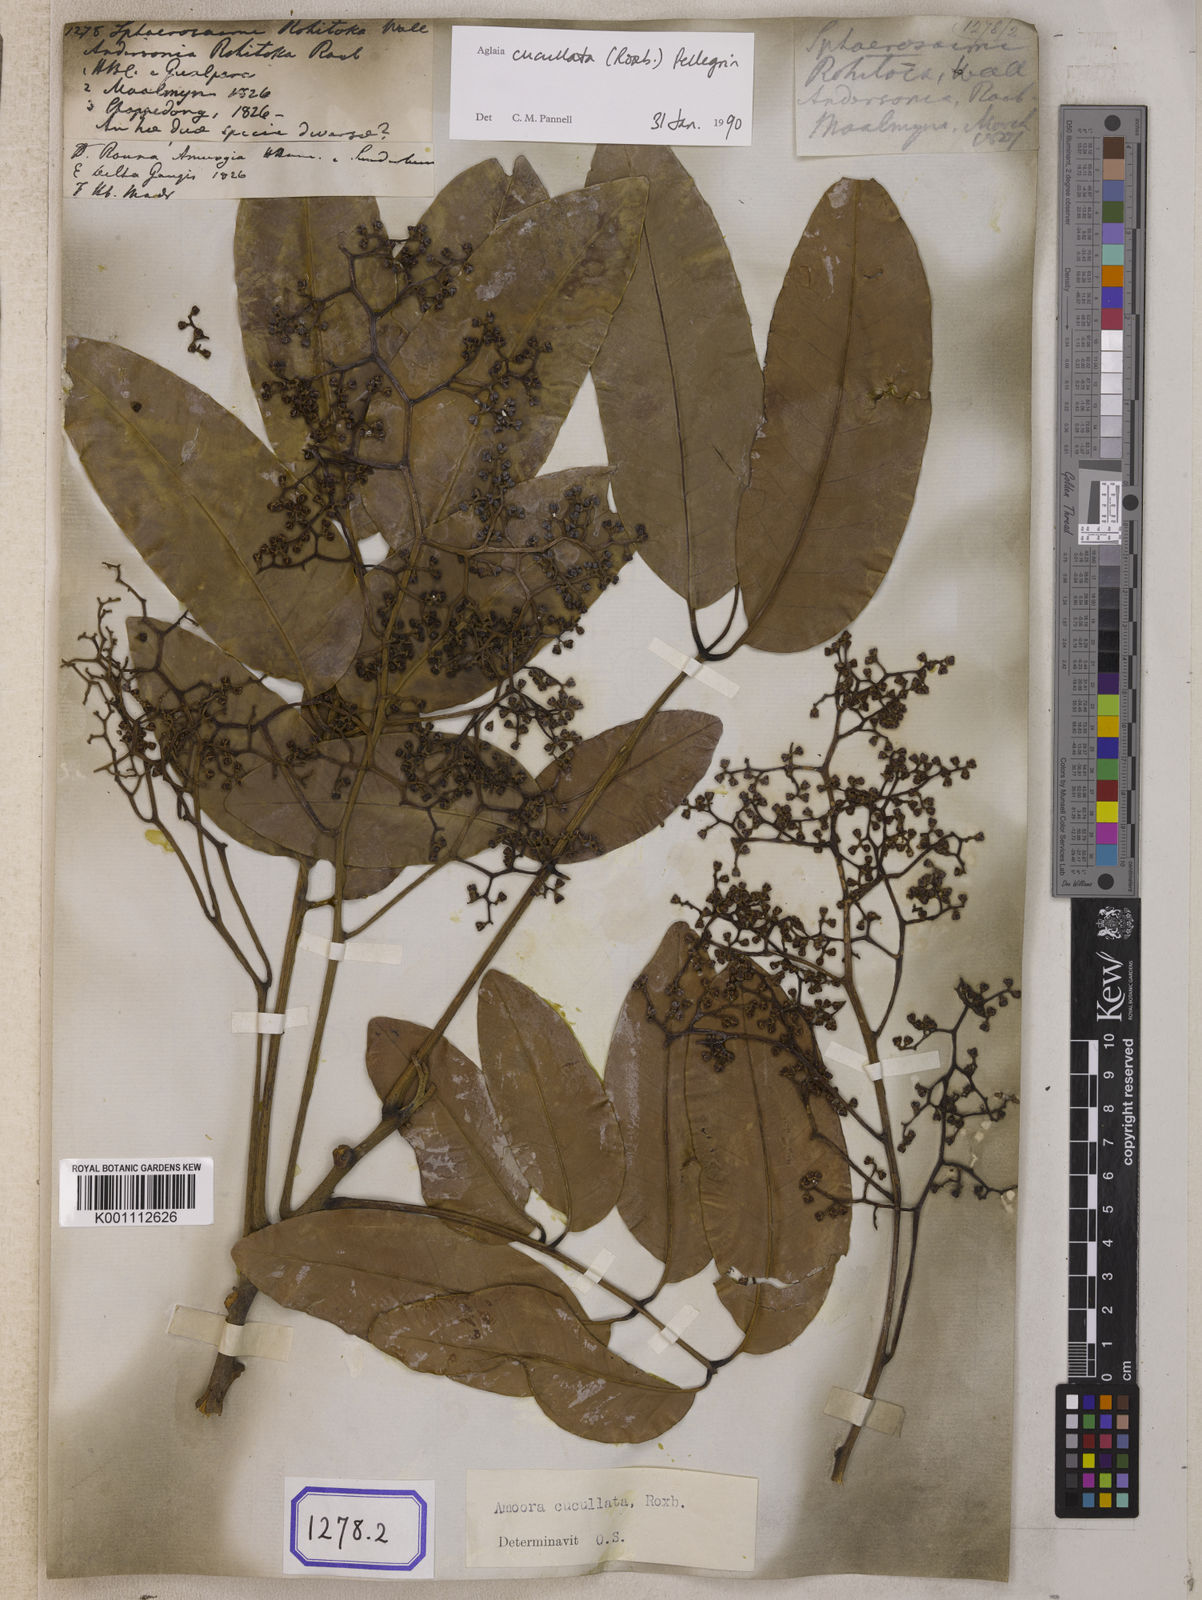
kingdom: Plantae
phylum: Tracheophyta
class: Magnoliopsida
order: Sapindales
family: Meliaceae
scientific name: Meliaceae
